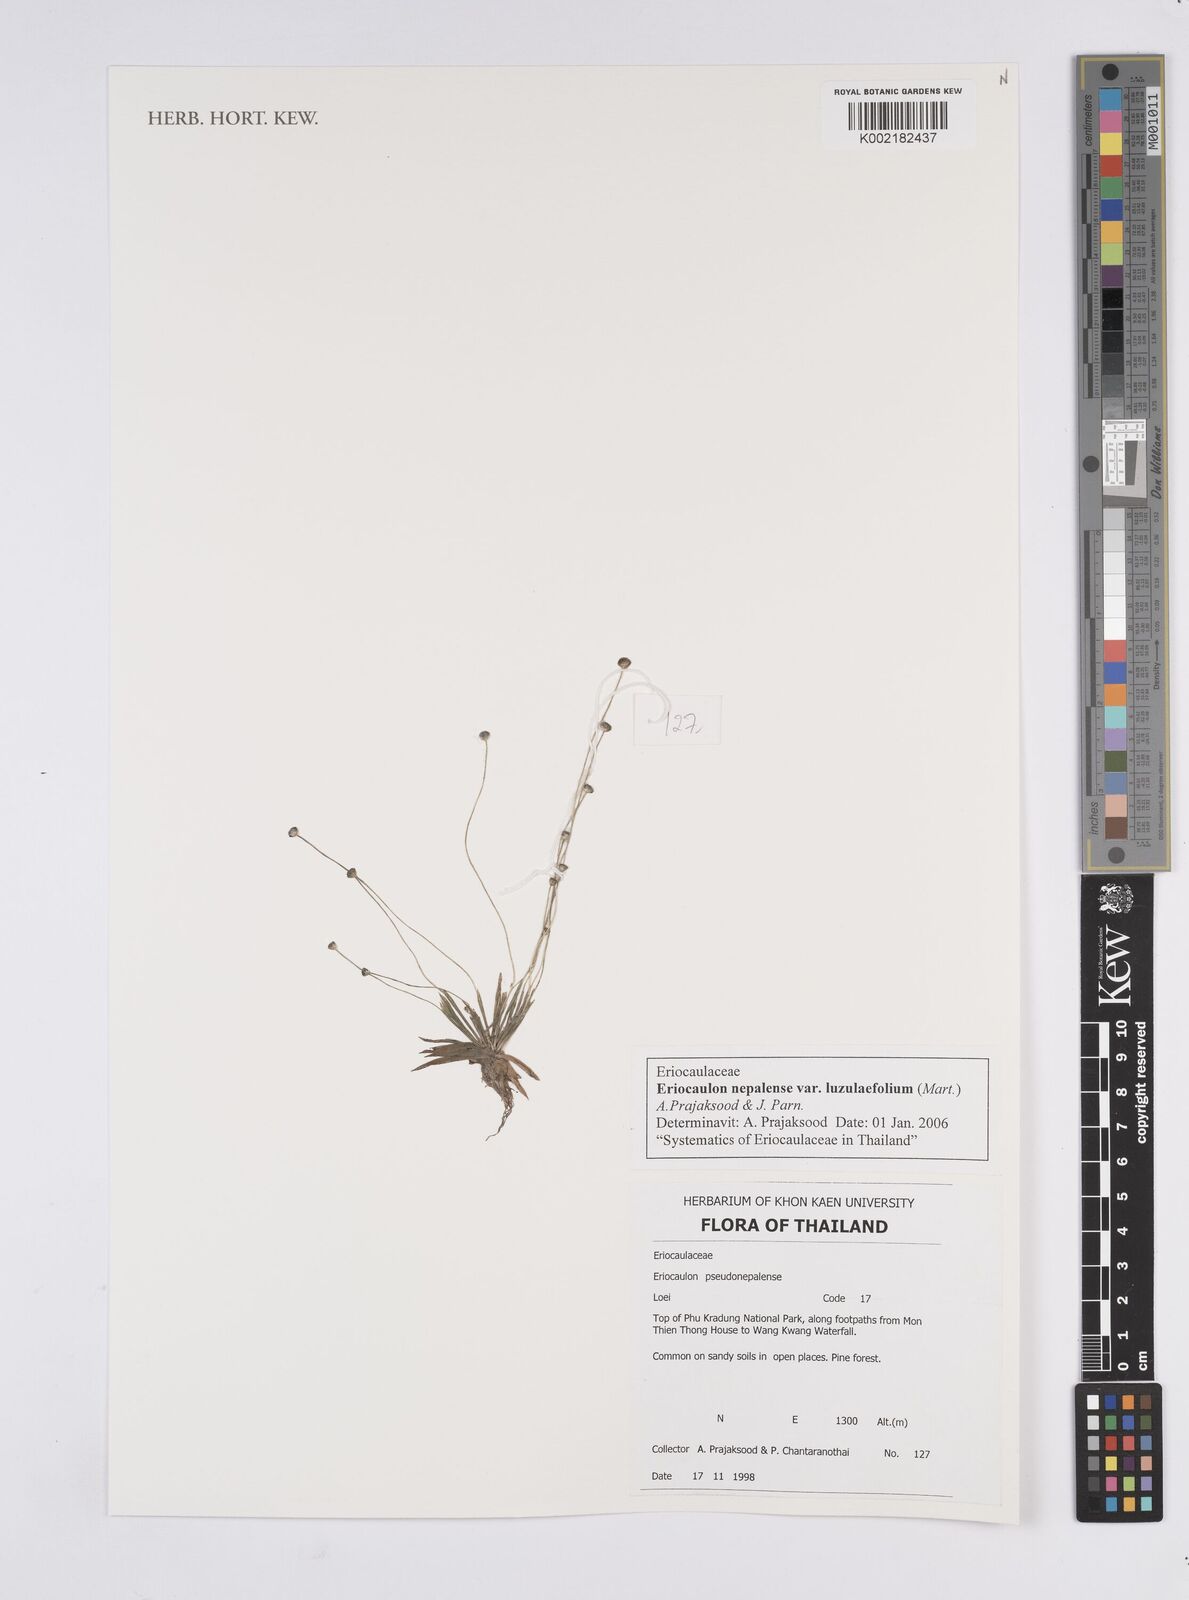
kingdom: Plantae
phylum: Tracheophyta
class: Liliopsida
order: Poales
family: Eriocaulaceae
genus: Eriocaulon
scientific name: Eriocaulon nepalense
